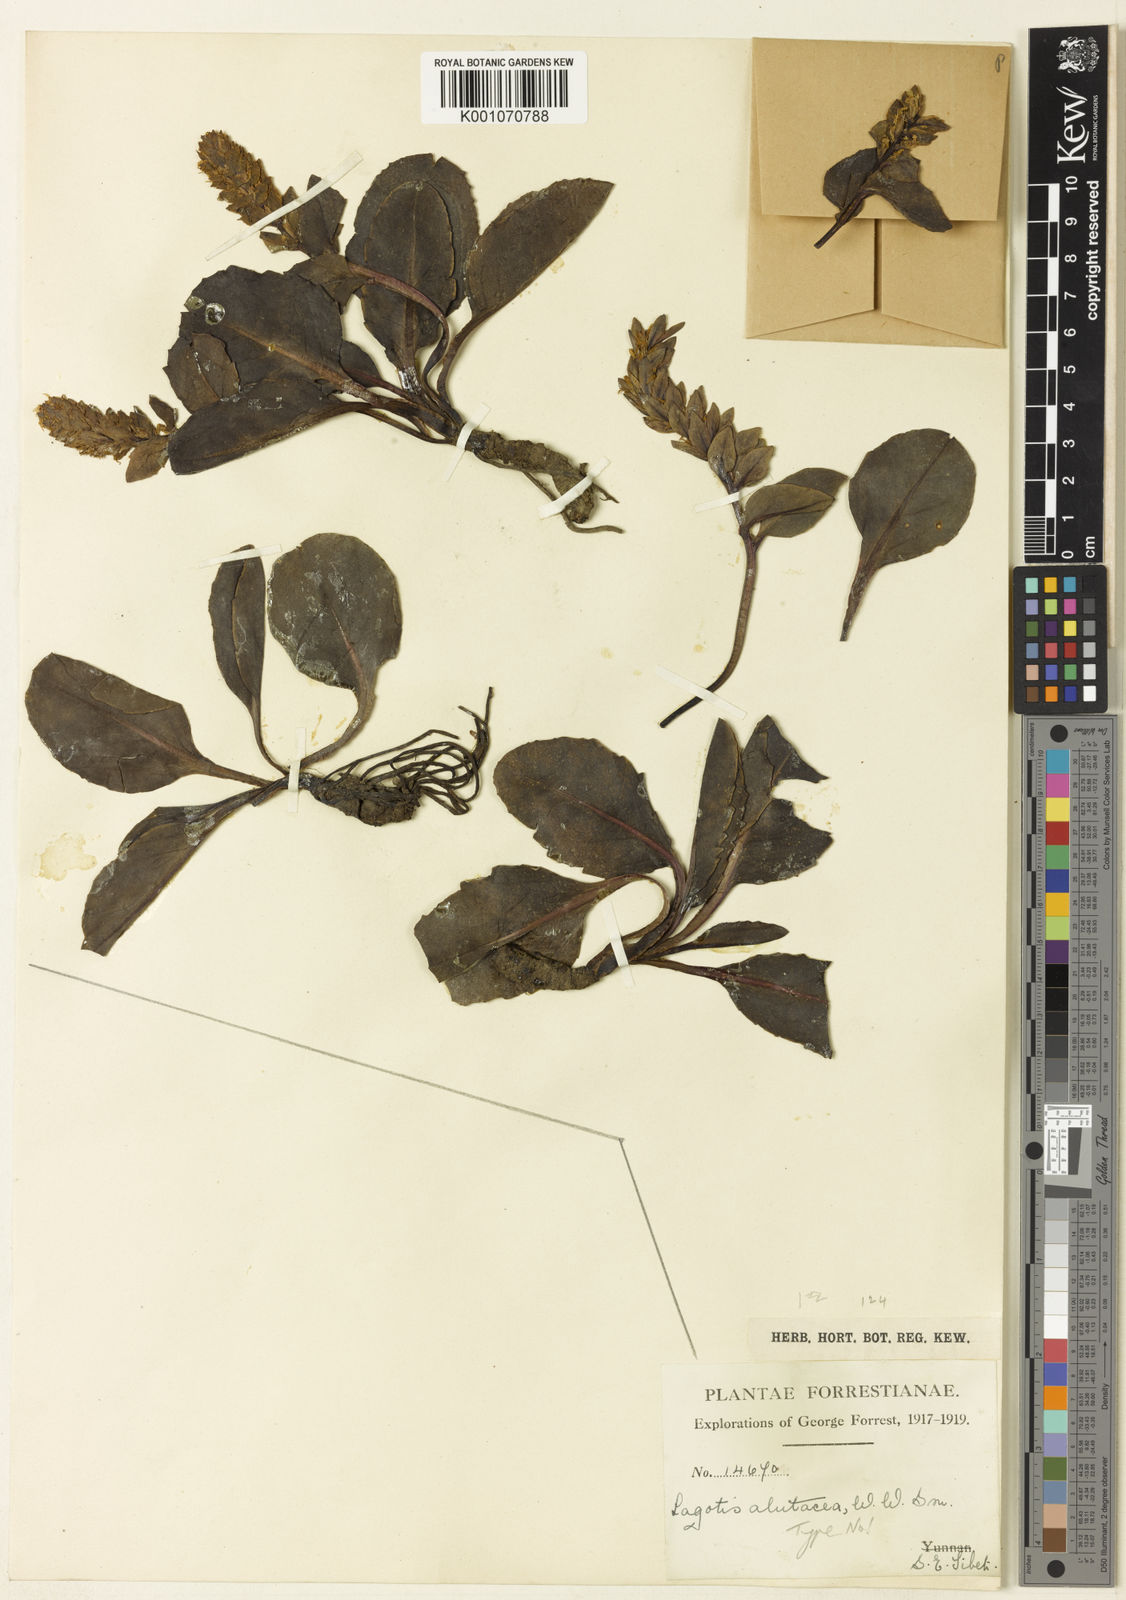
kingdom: Plantae
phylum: Tracheophyta
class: Magnoliopsida
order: Lamiales
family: Plantaginaceae
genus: Lagotis
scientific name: Lagotis alutacea
